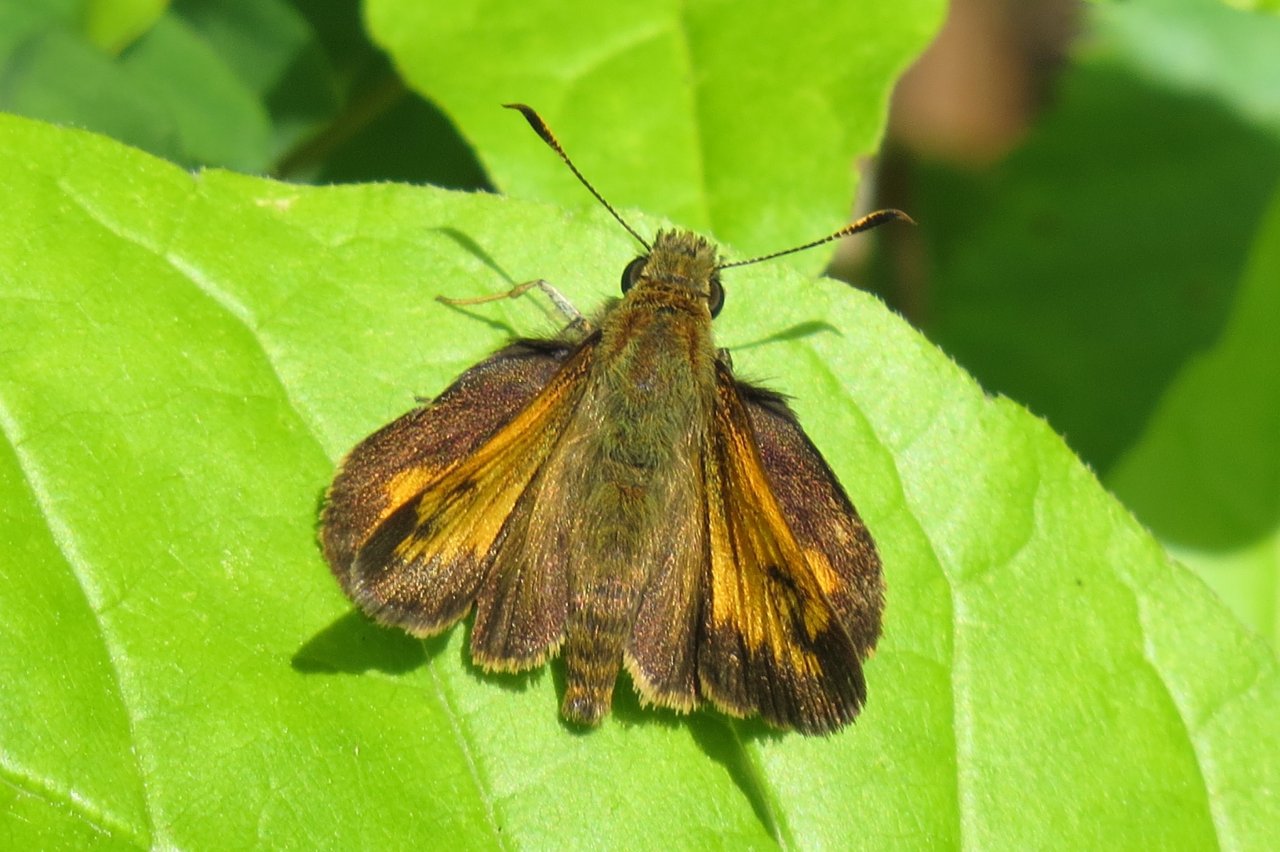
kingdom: Animalia
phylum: Arthropoda
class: Insecta
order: Lepidoptera
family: Hesperiidae
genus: Lon
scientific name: Lon hobomok
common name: Hobomok Skipper
